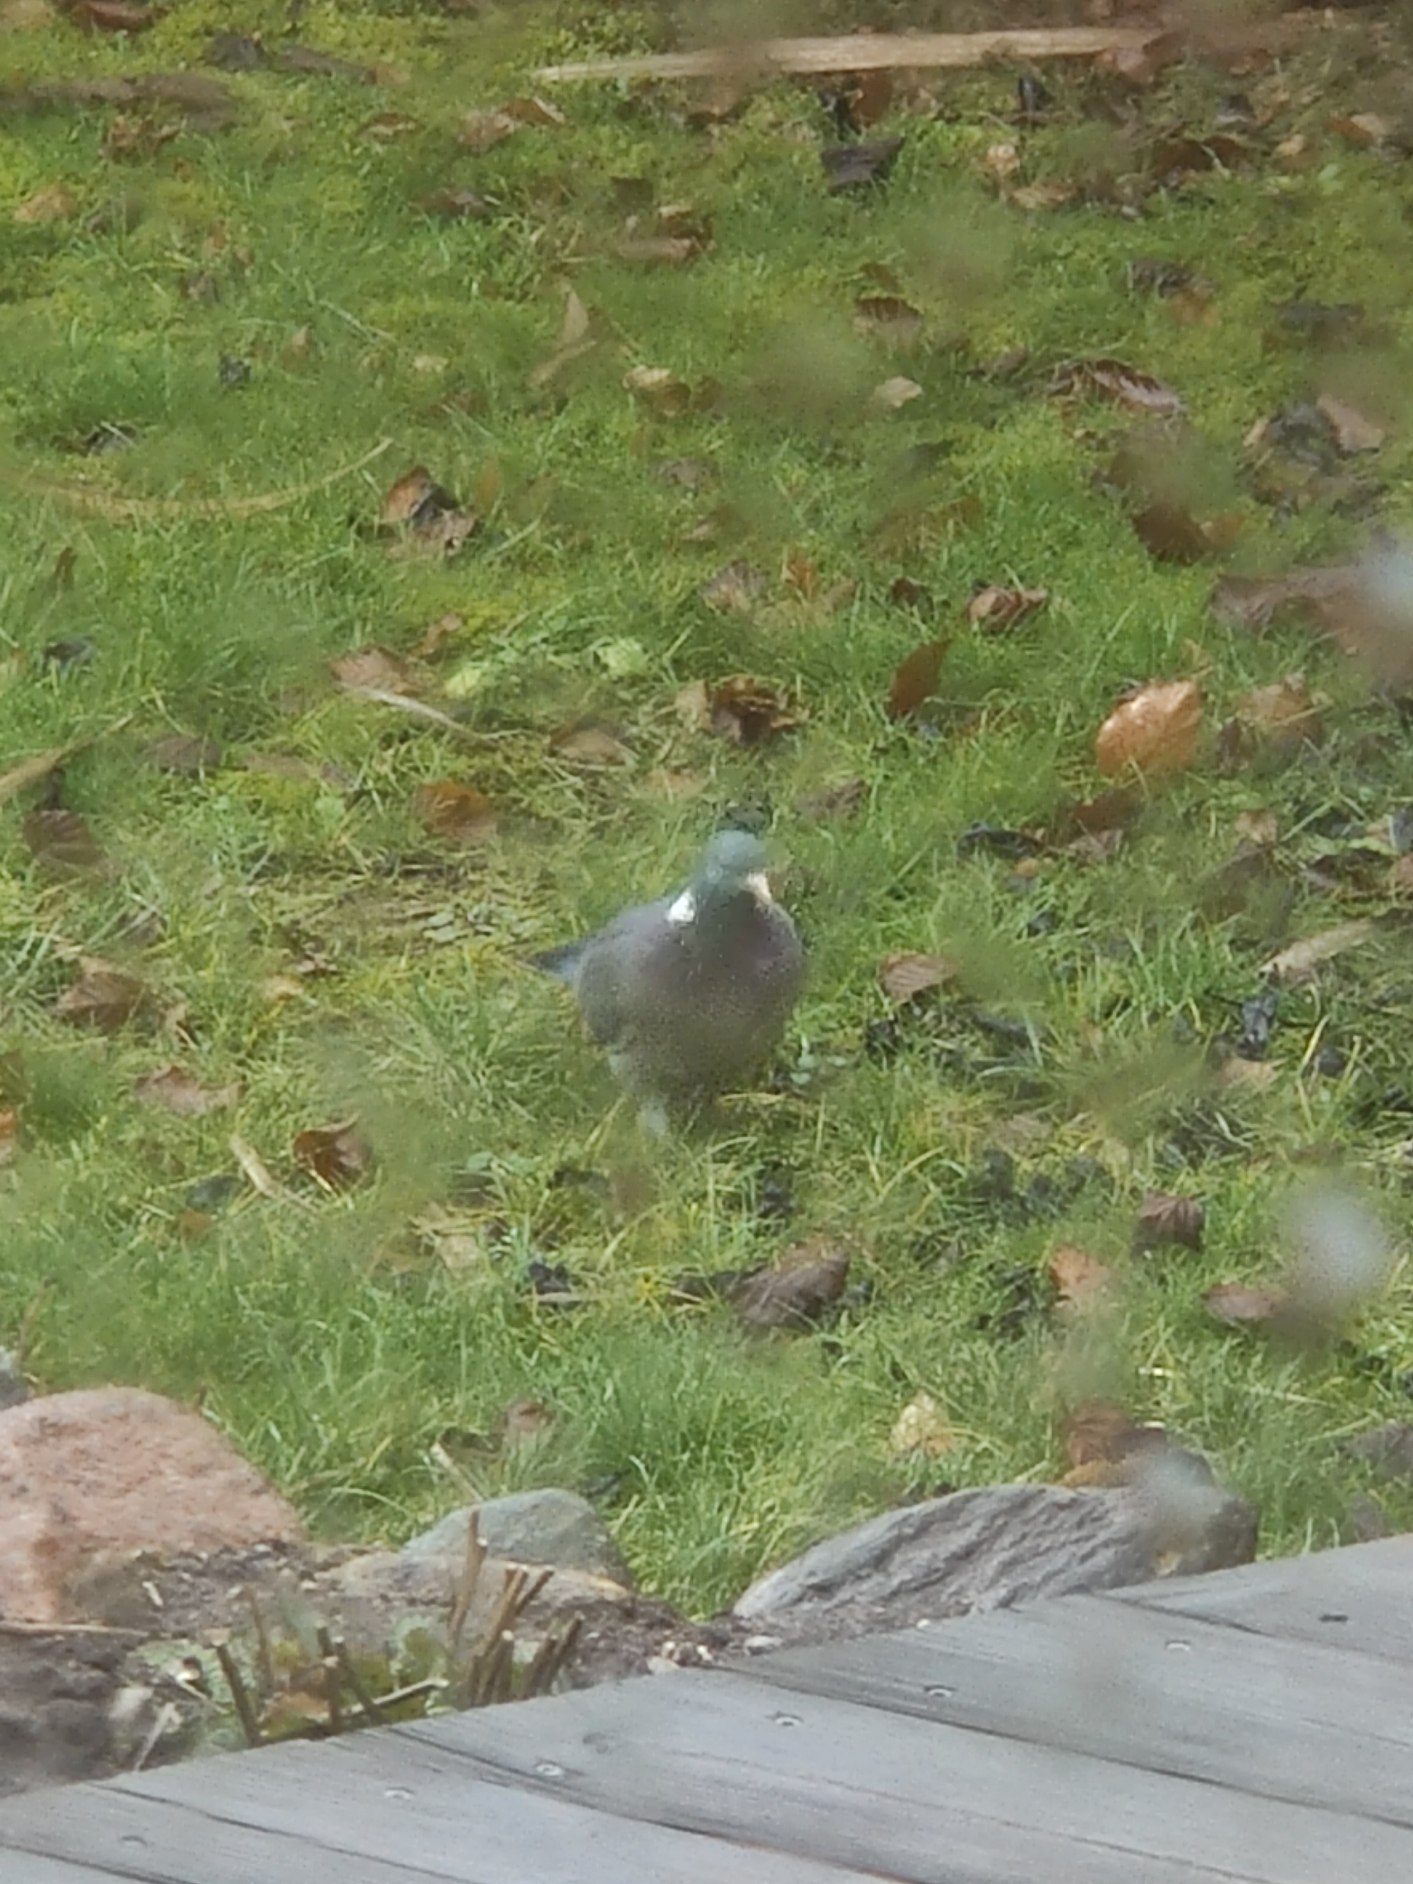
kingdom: Animalia
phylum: Chordata
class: Aves
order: Columbiformes
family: Columbidae
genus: Columba
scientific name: Columba palumbus
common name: Ringdue
